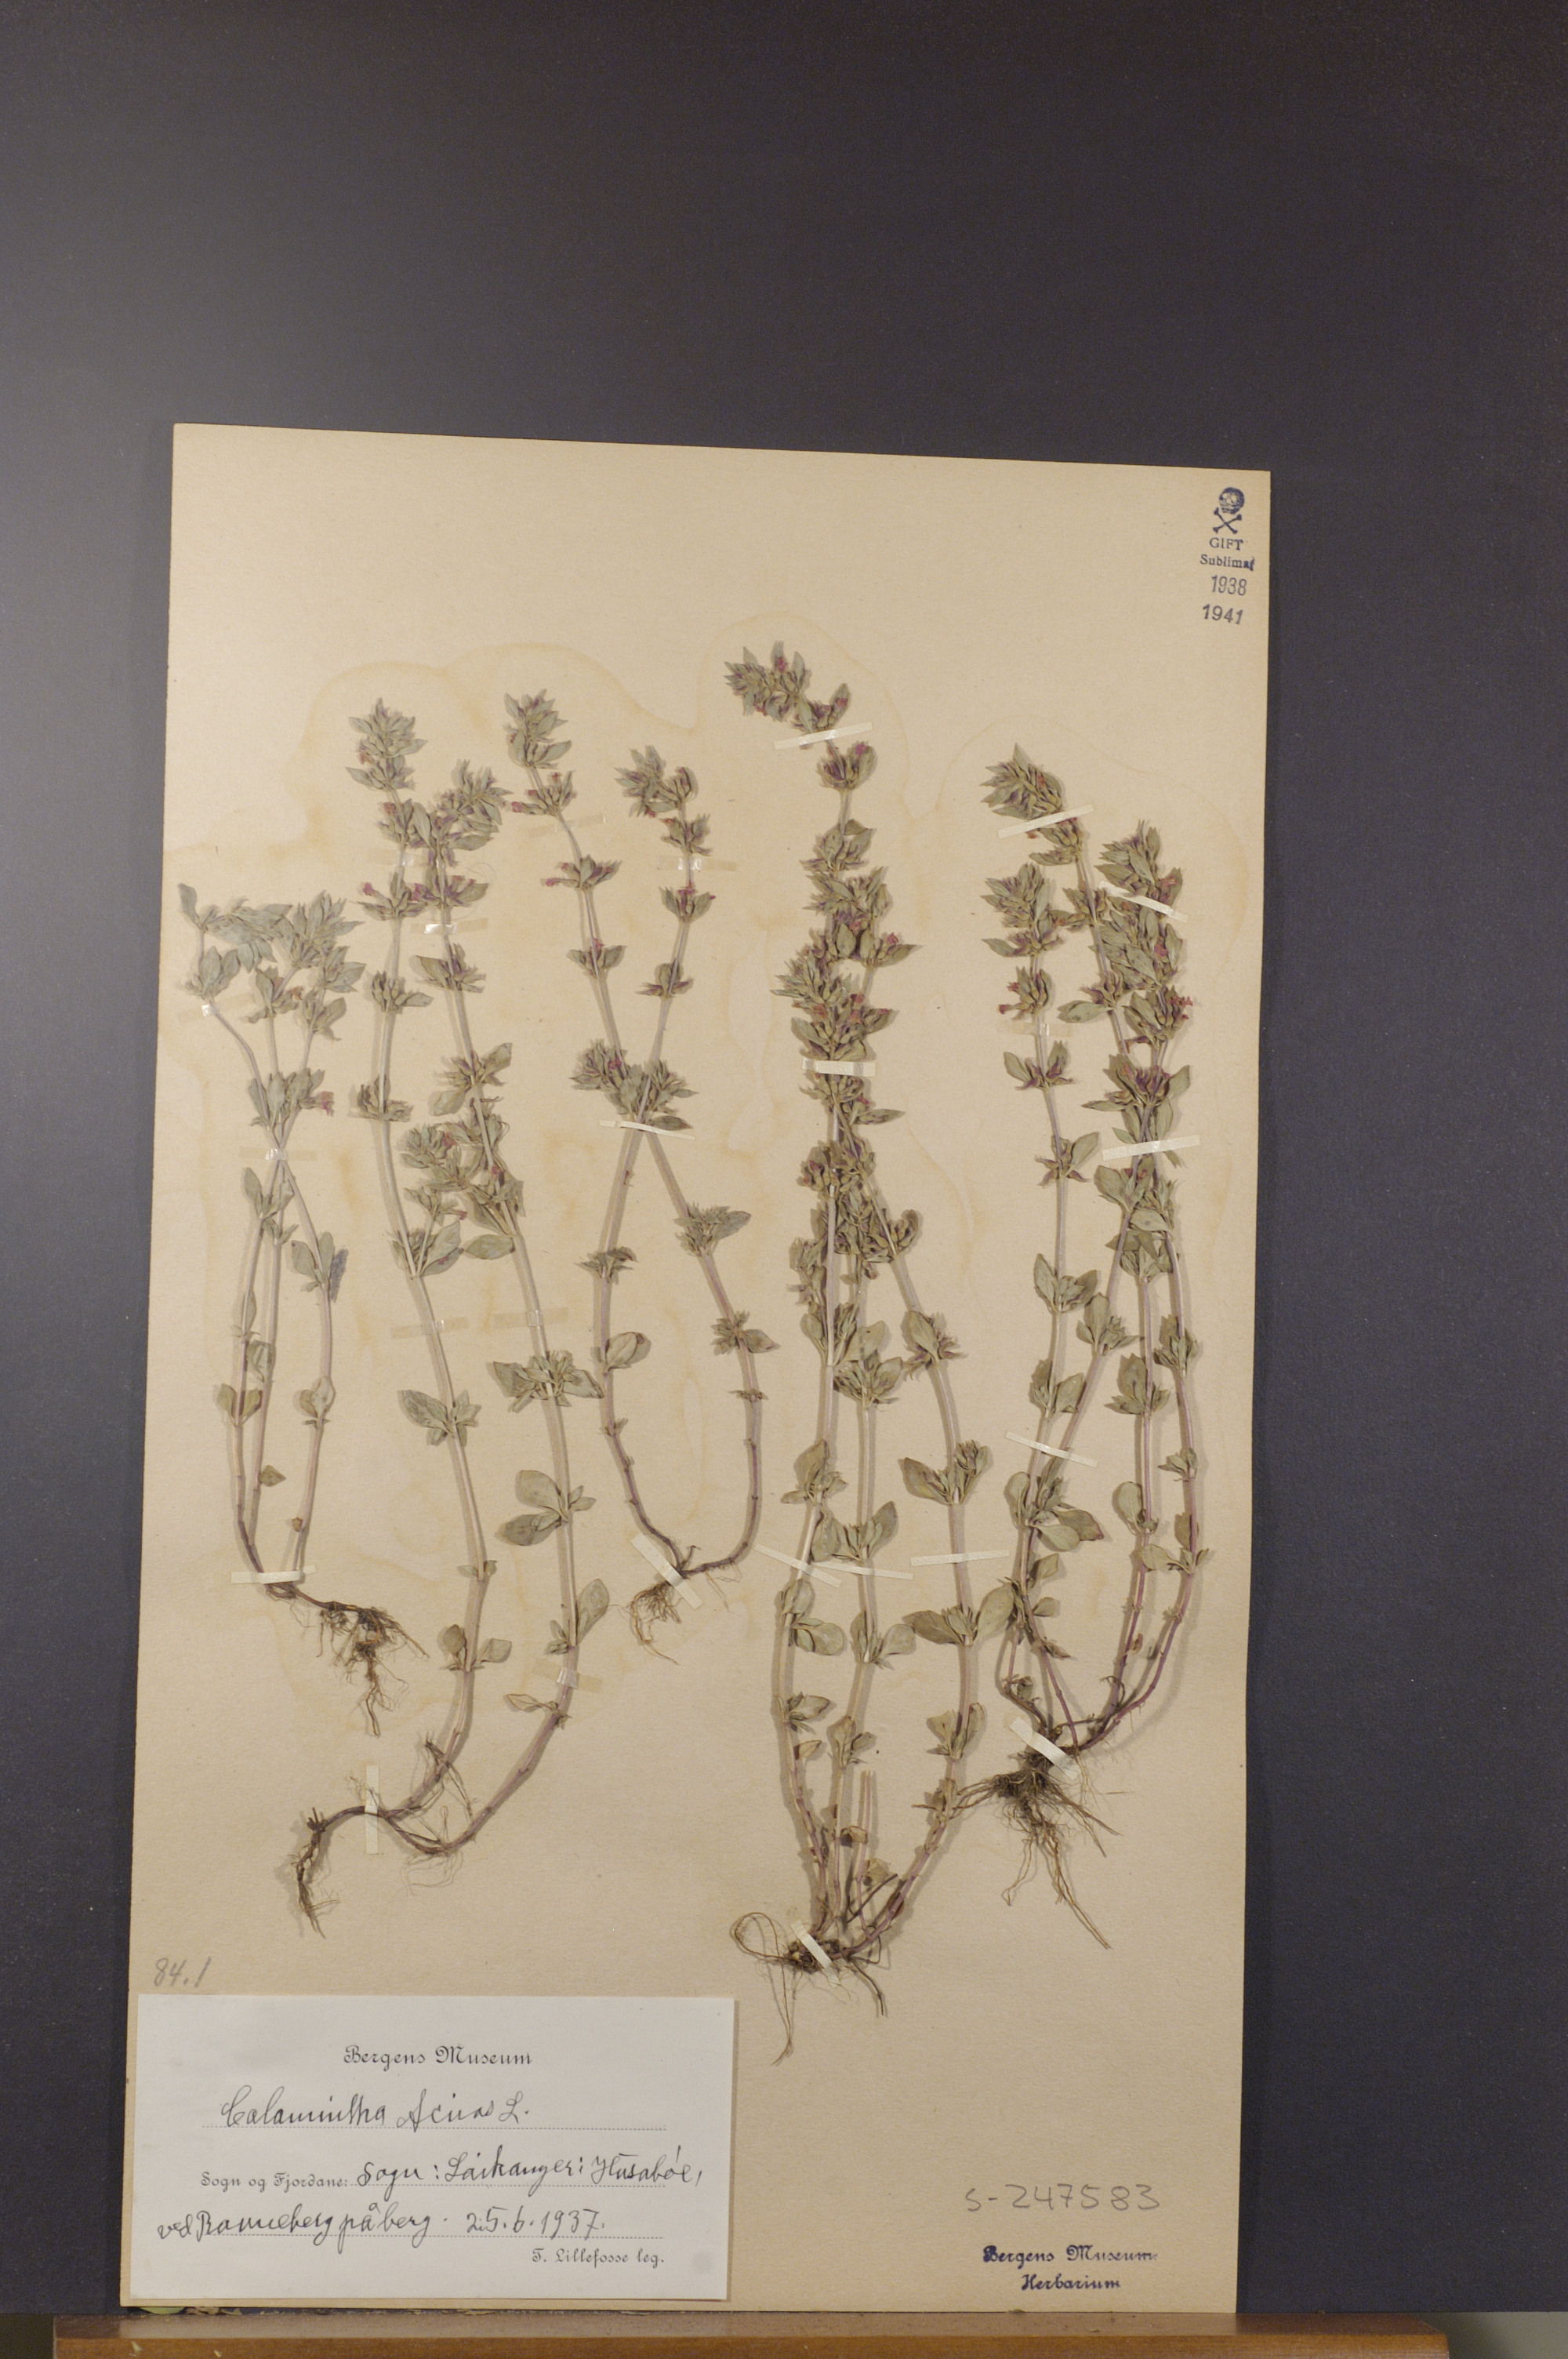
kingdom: Plantae
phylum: Tracheophyta
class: Magnoliopsida
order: Lamiales
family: Lamiaceae
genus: Clinopodium
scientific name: Clinopodium acinos
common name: Basil thyme
